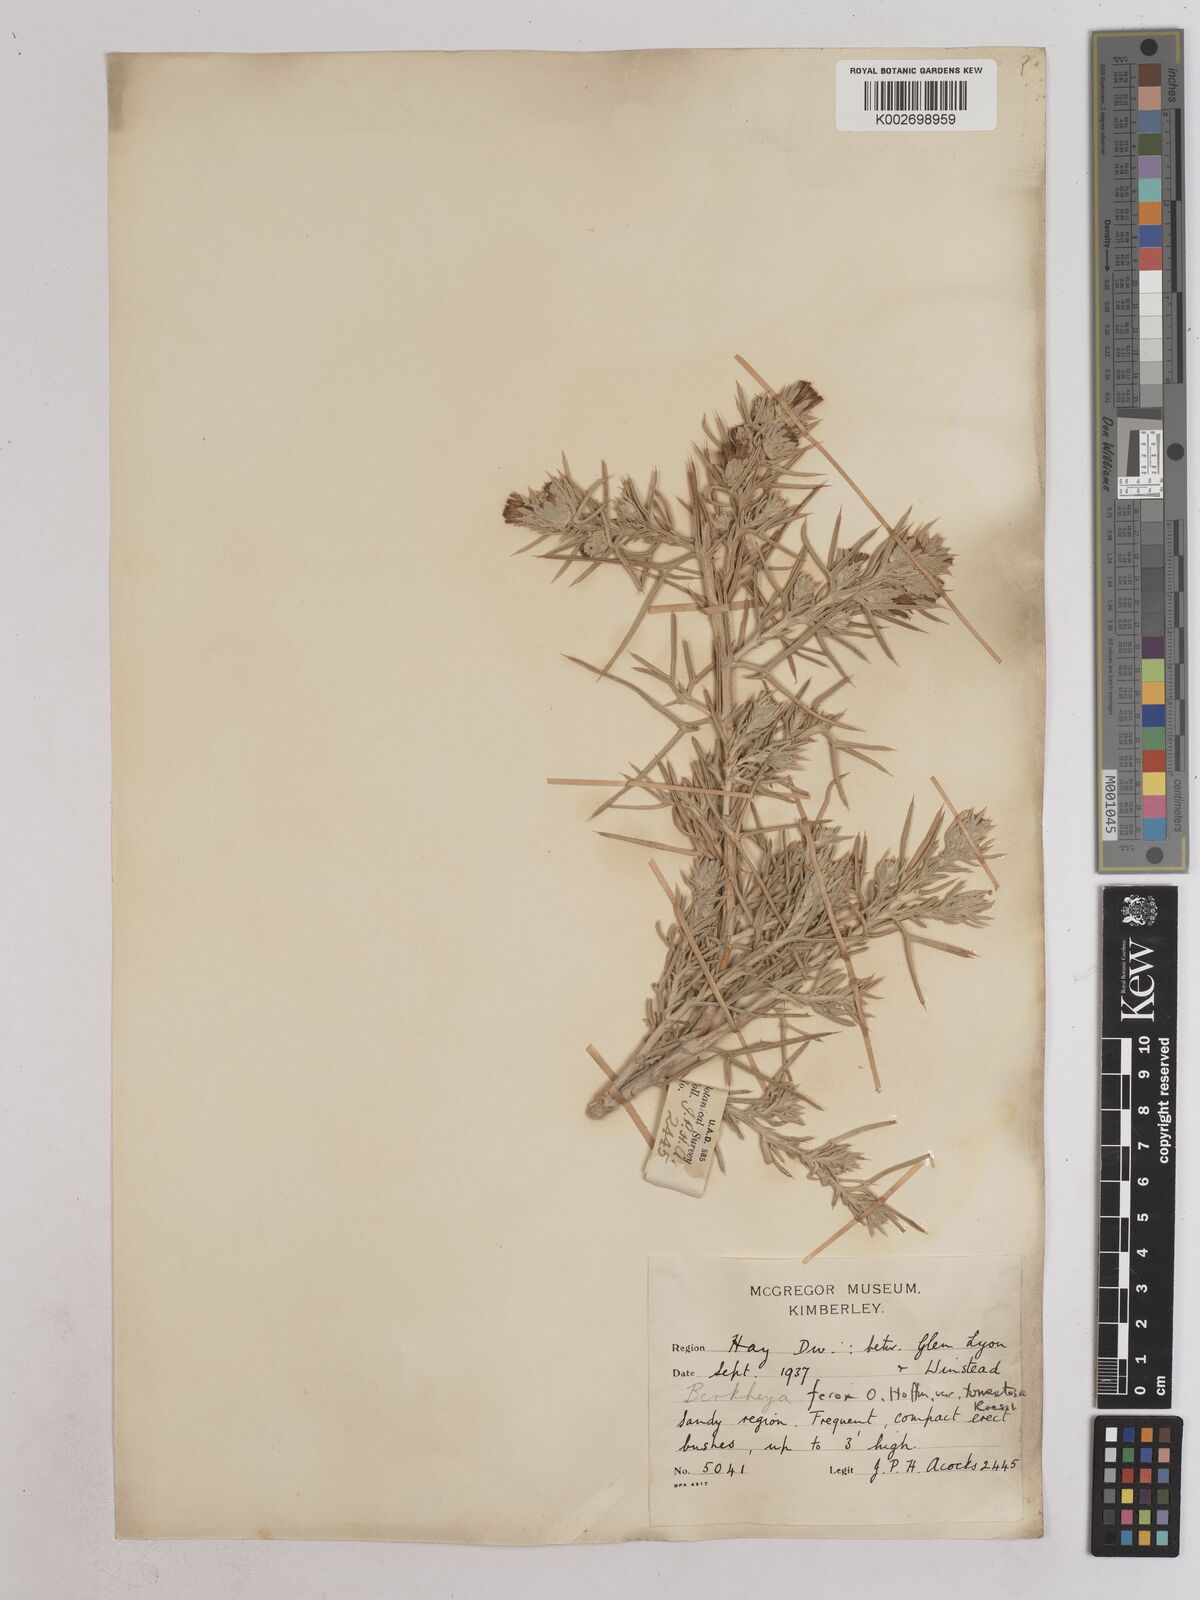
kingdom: Plantae
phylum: Tracheophyta
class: Magnoliopsida
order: Asterales
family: Asteraceae
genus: Berkheya
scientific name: Berkheya ferox
